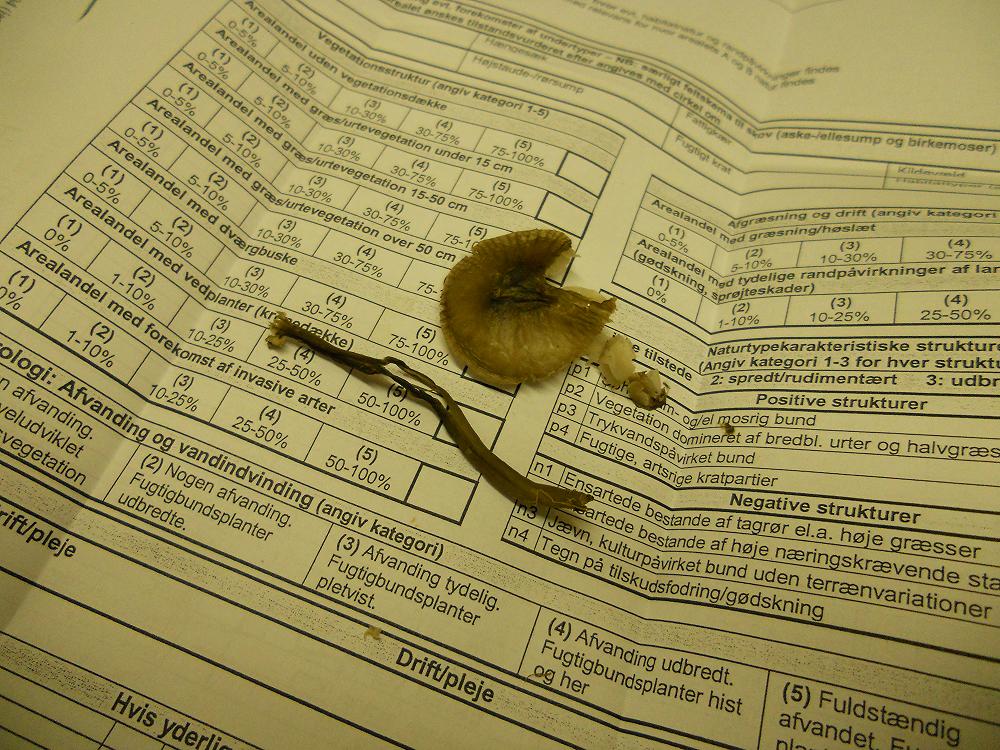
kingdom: Fungi
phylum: Basidiomycota
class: Agaricomycetes
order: Agaricales
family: Hygrophoraceae
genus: Cuphophyllus
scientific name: Cuphophyllus lacmus
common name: gråviolet vokshat
